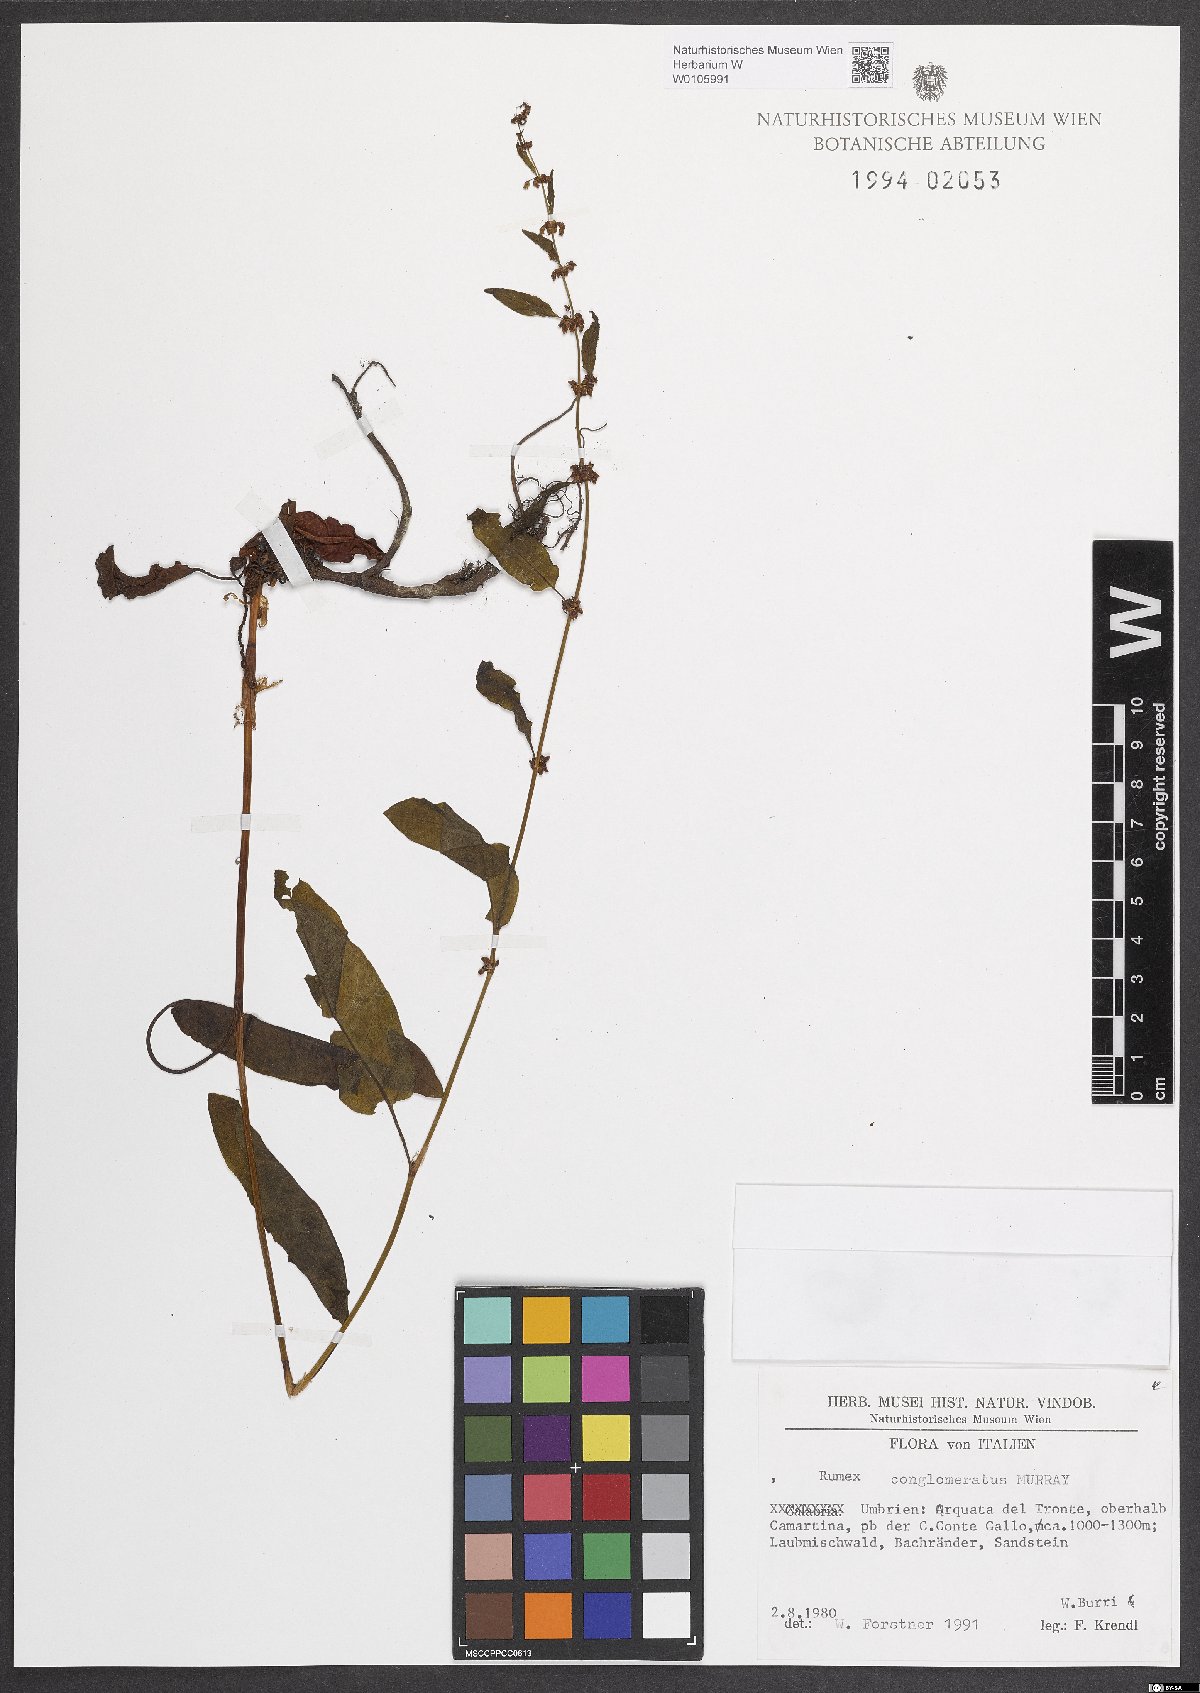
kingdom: Plantae
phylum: Tracheophyta
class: Magnoliopsida
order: Caryophyllales
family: Polygonaceae
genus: Rumex
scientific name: Rumex conglomeratus
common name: Clustered dock
